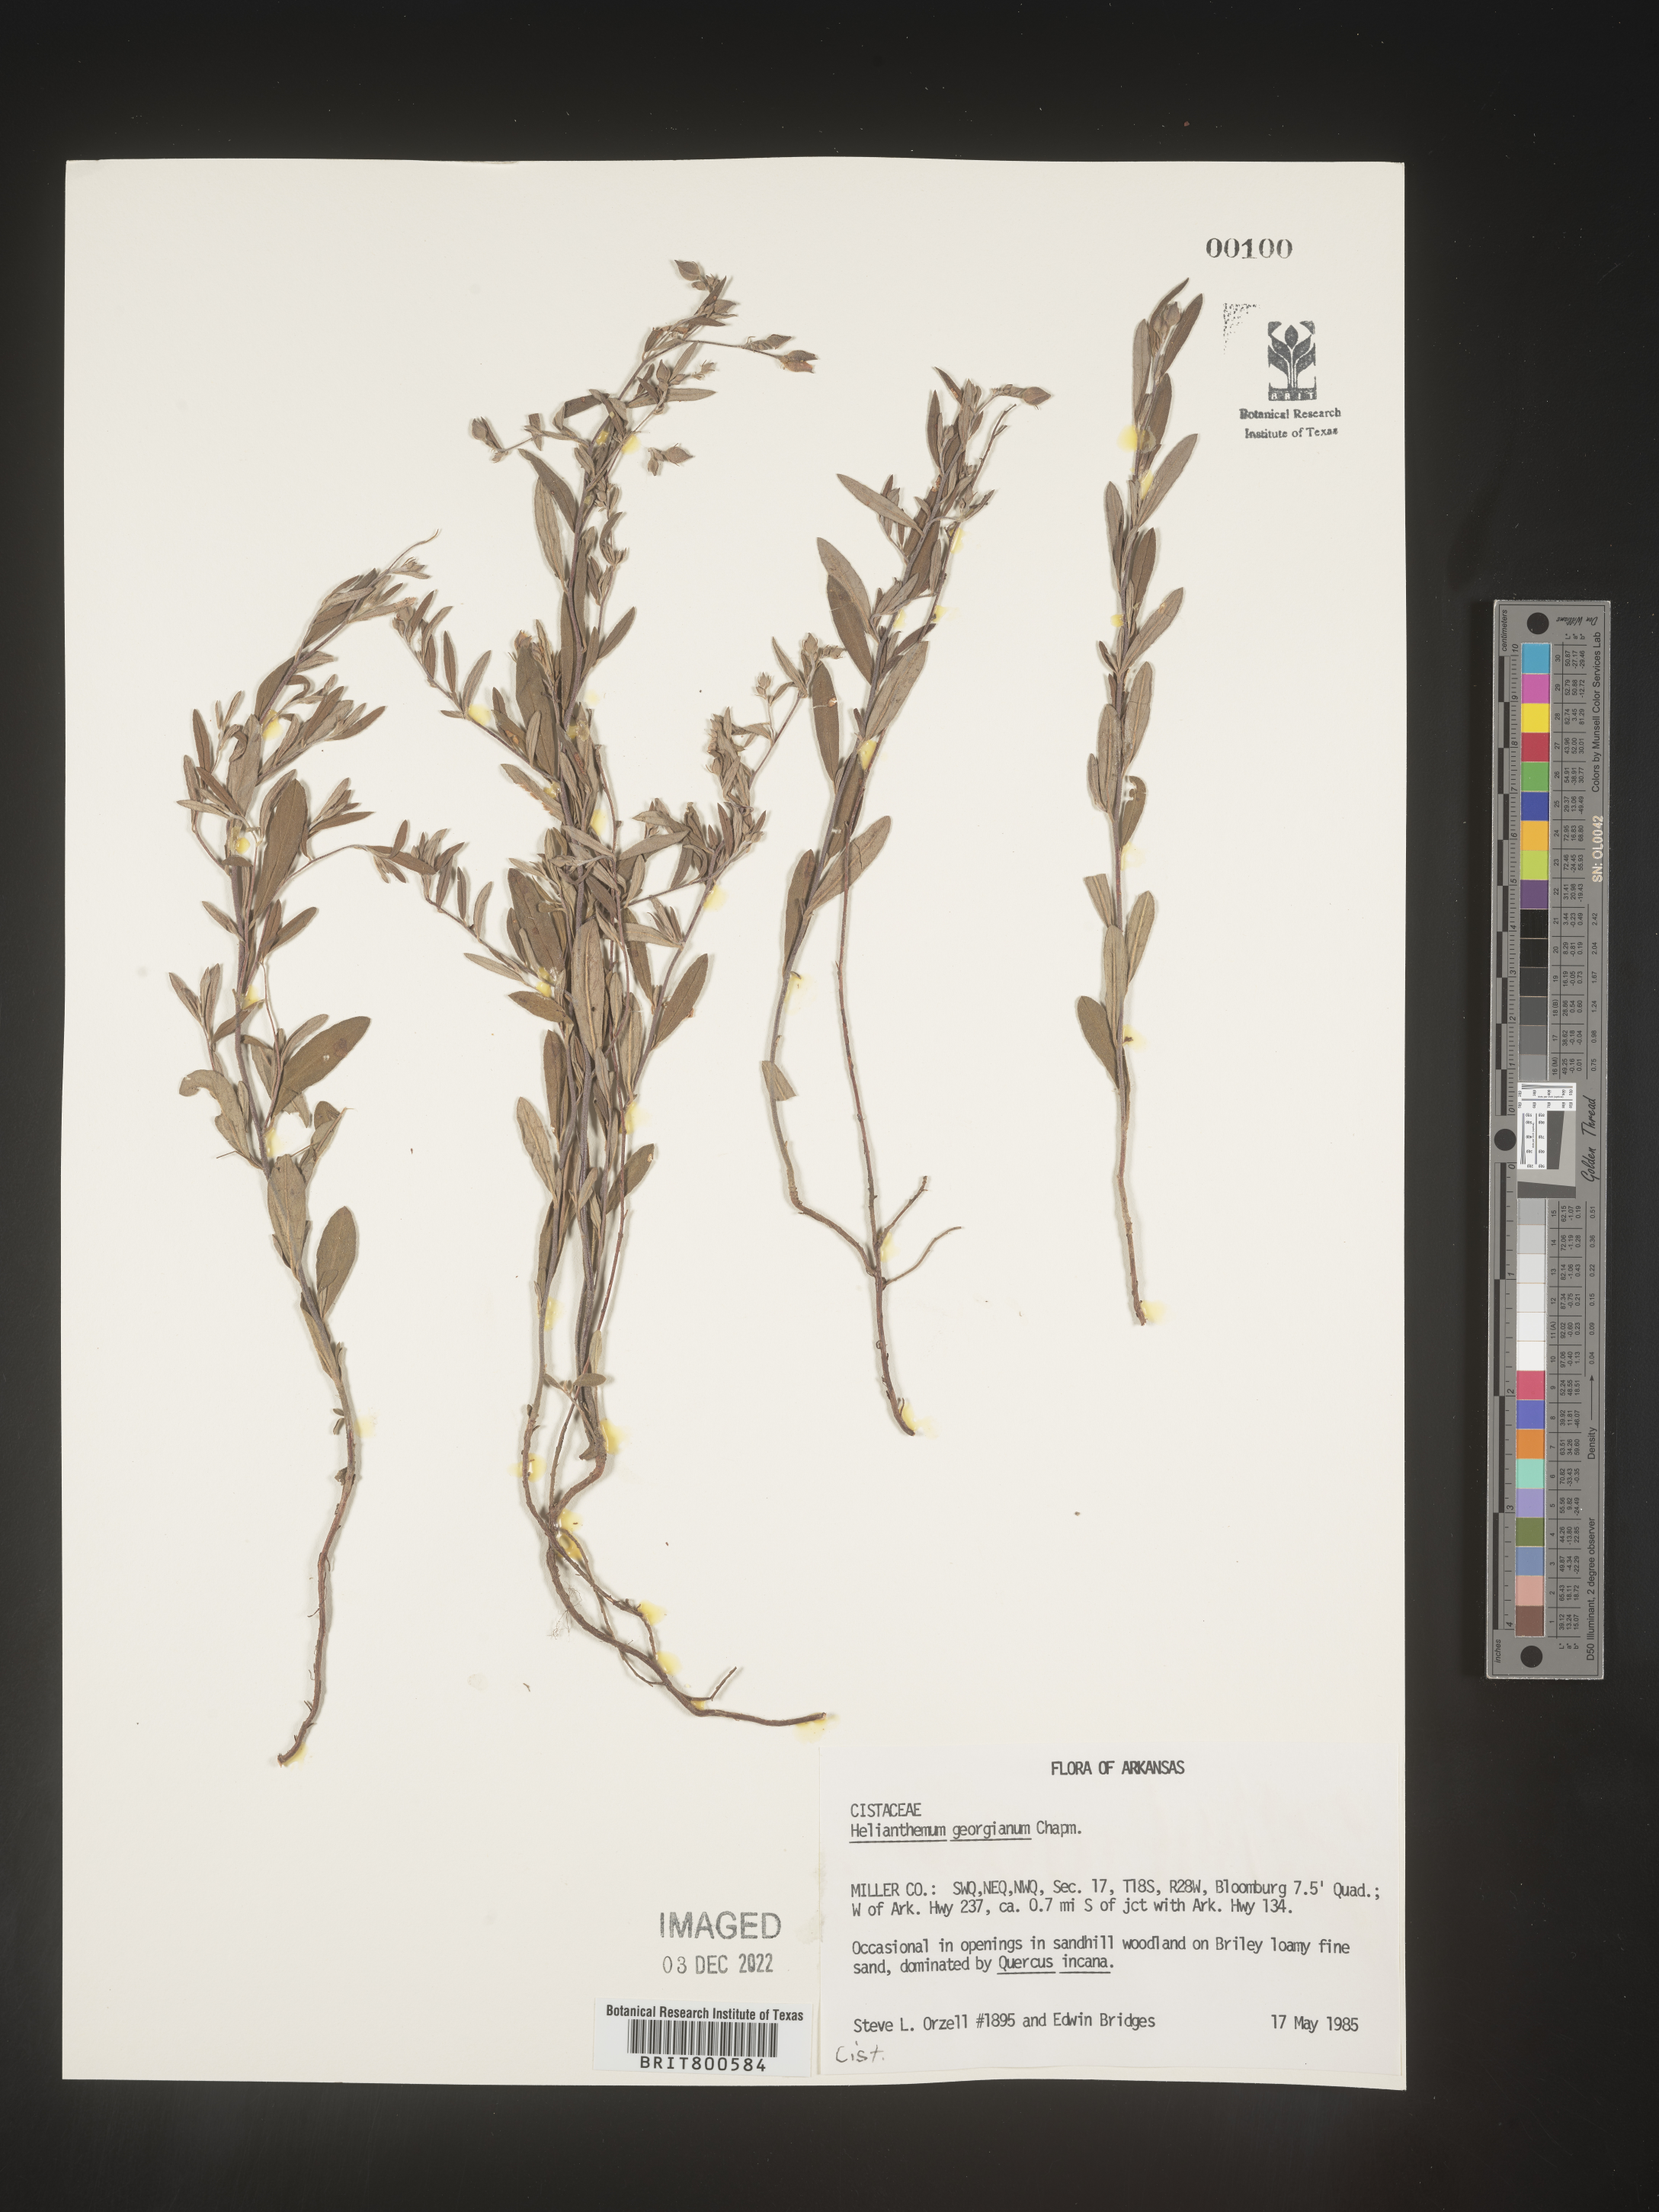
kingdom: Plantae
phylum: Tracheophyta
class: Magnoliopsida
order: Malvales
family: Cistaceae
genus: Crocanthemum
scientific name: Crocanthemum georgianum
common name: Georgia frostweed
